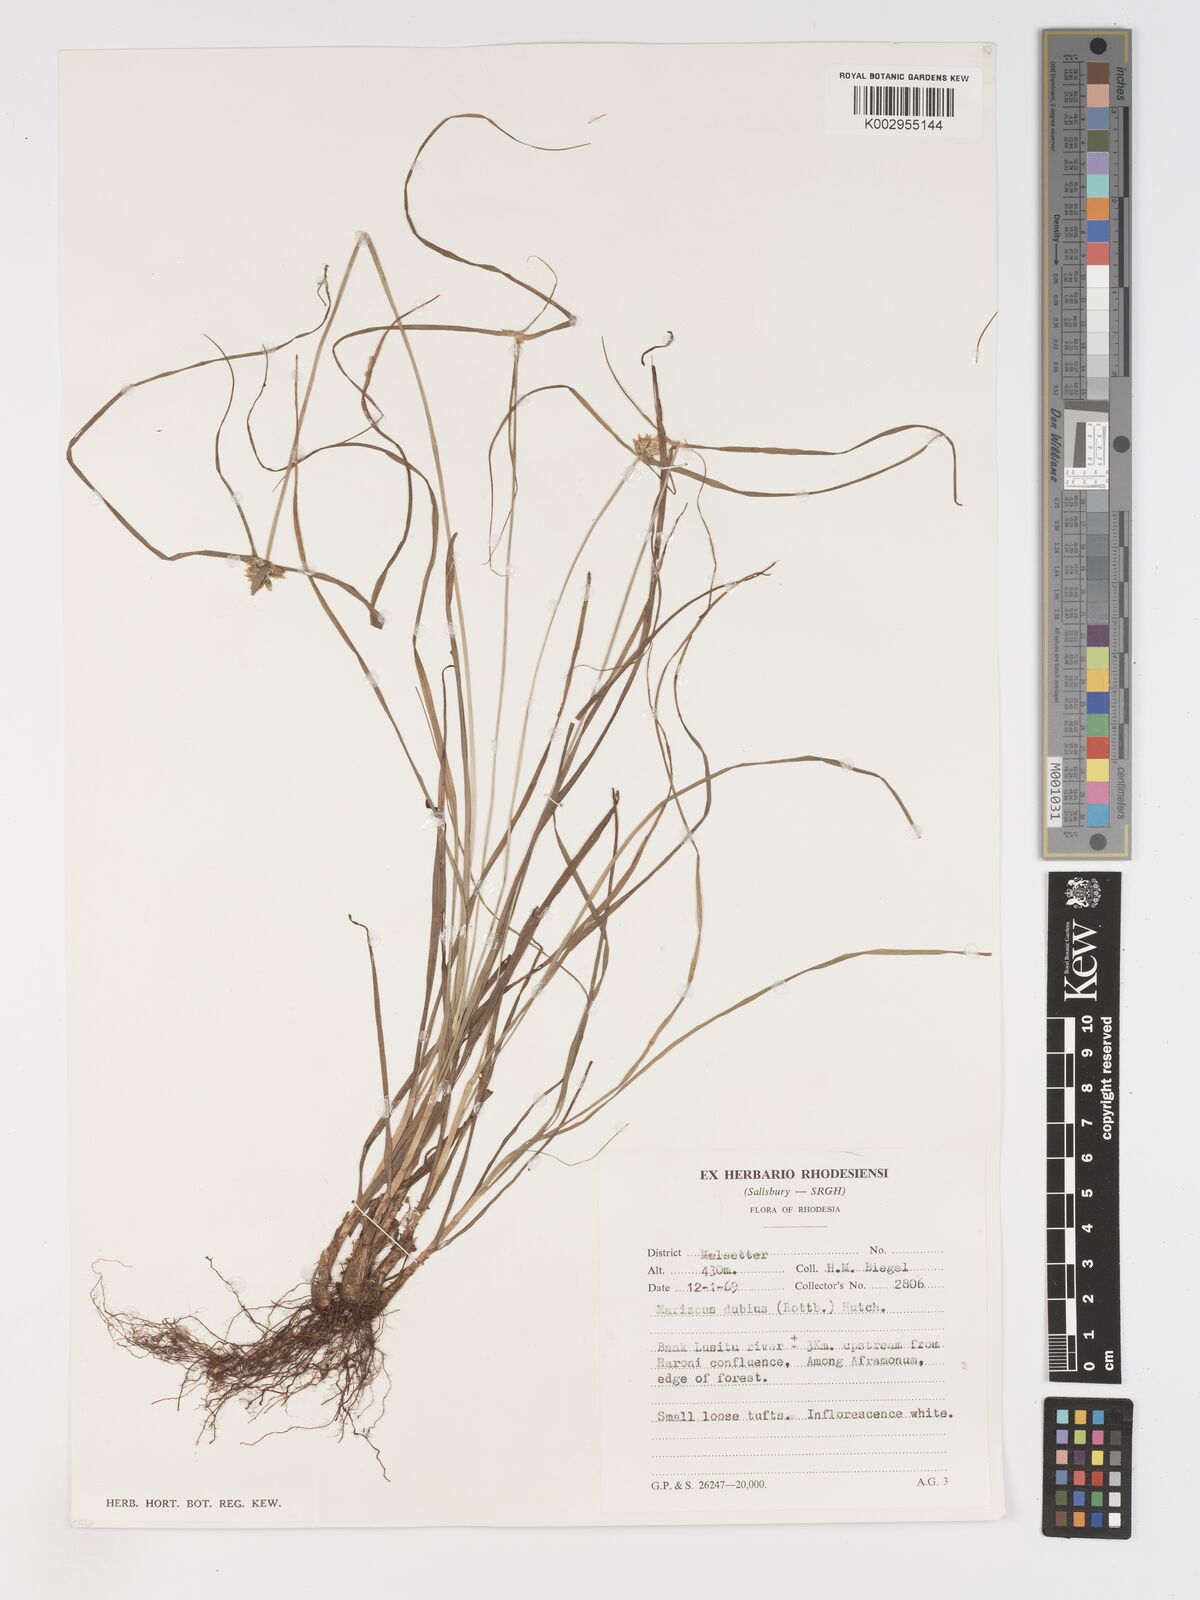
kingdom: Plantae
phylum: Tracheophyta
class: Liliopsida
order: Poales
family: Cyperaceae
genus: Cyperus
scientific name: Cyperus dubius
